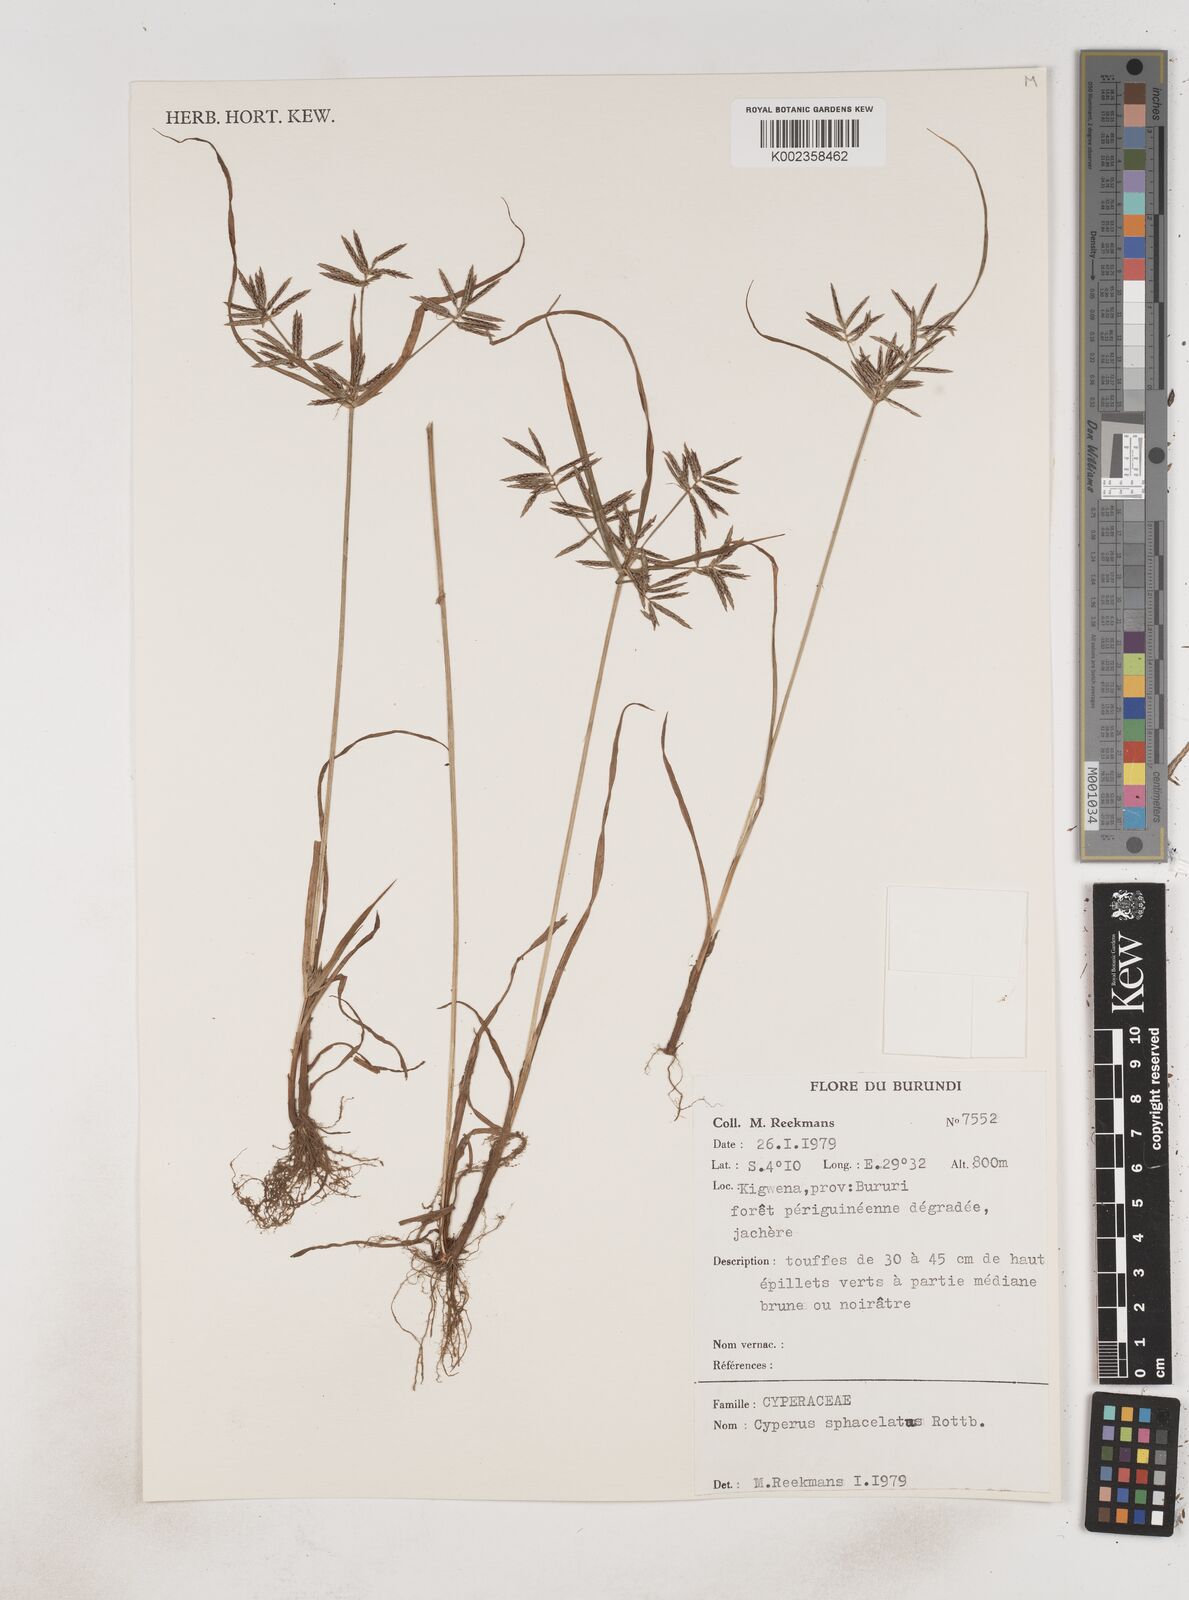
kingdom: Plantae
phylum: Tracheophyta
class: Liliopsida
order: Poales
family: Cyperaceae
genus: Cyperus
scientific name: Cyperus sphacelatus
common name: Roadside flatsedge
